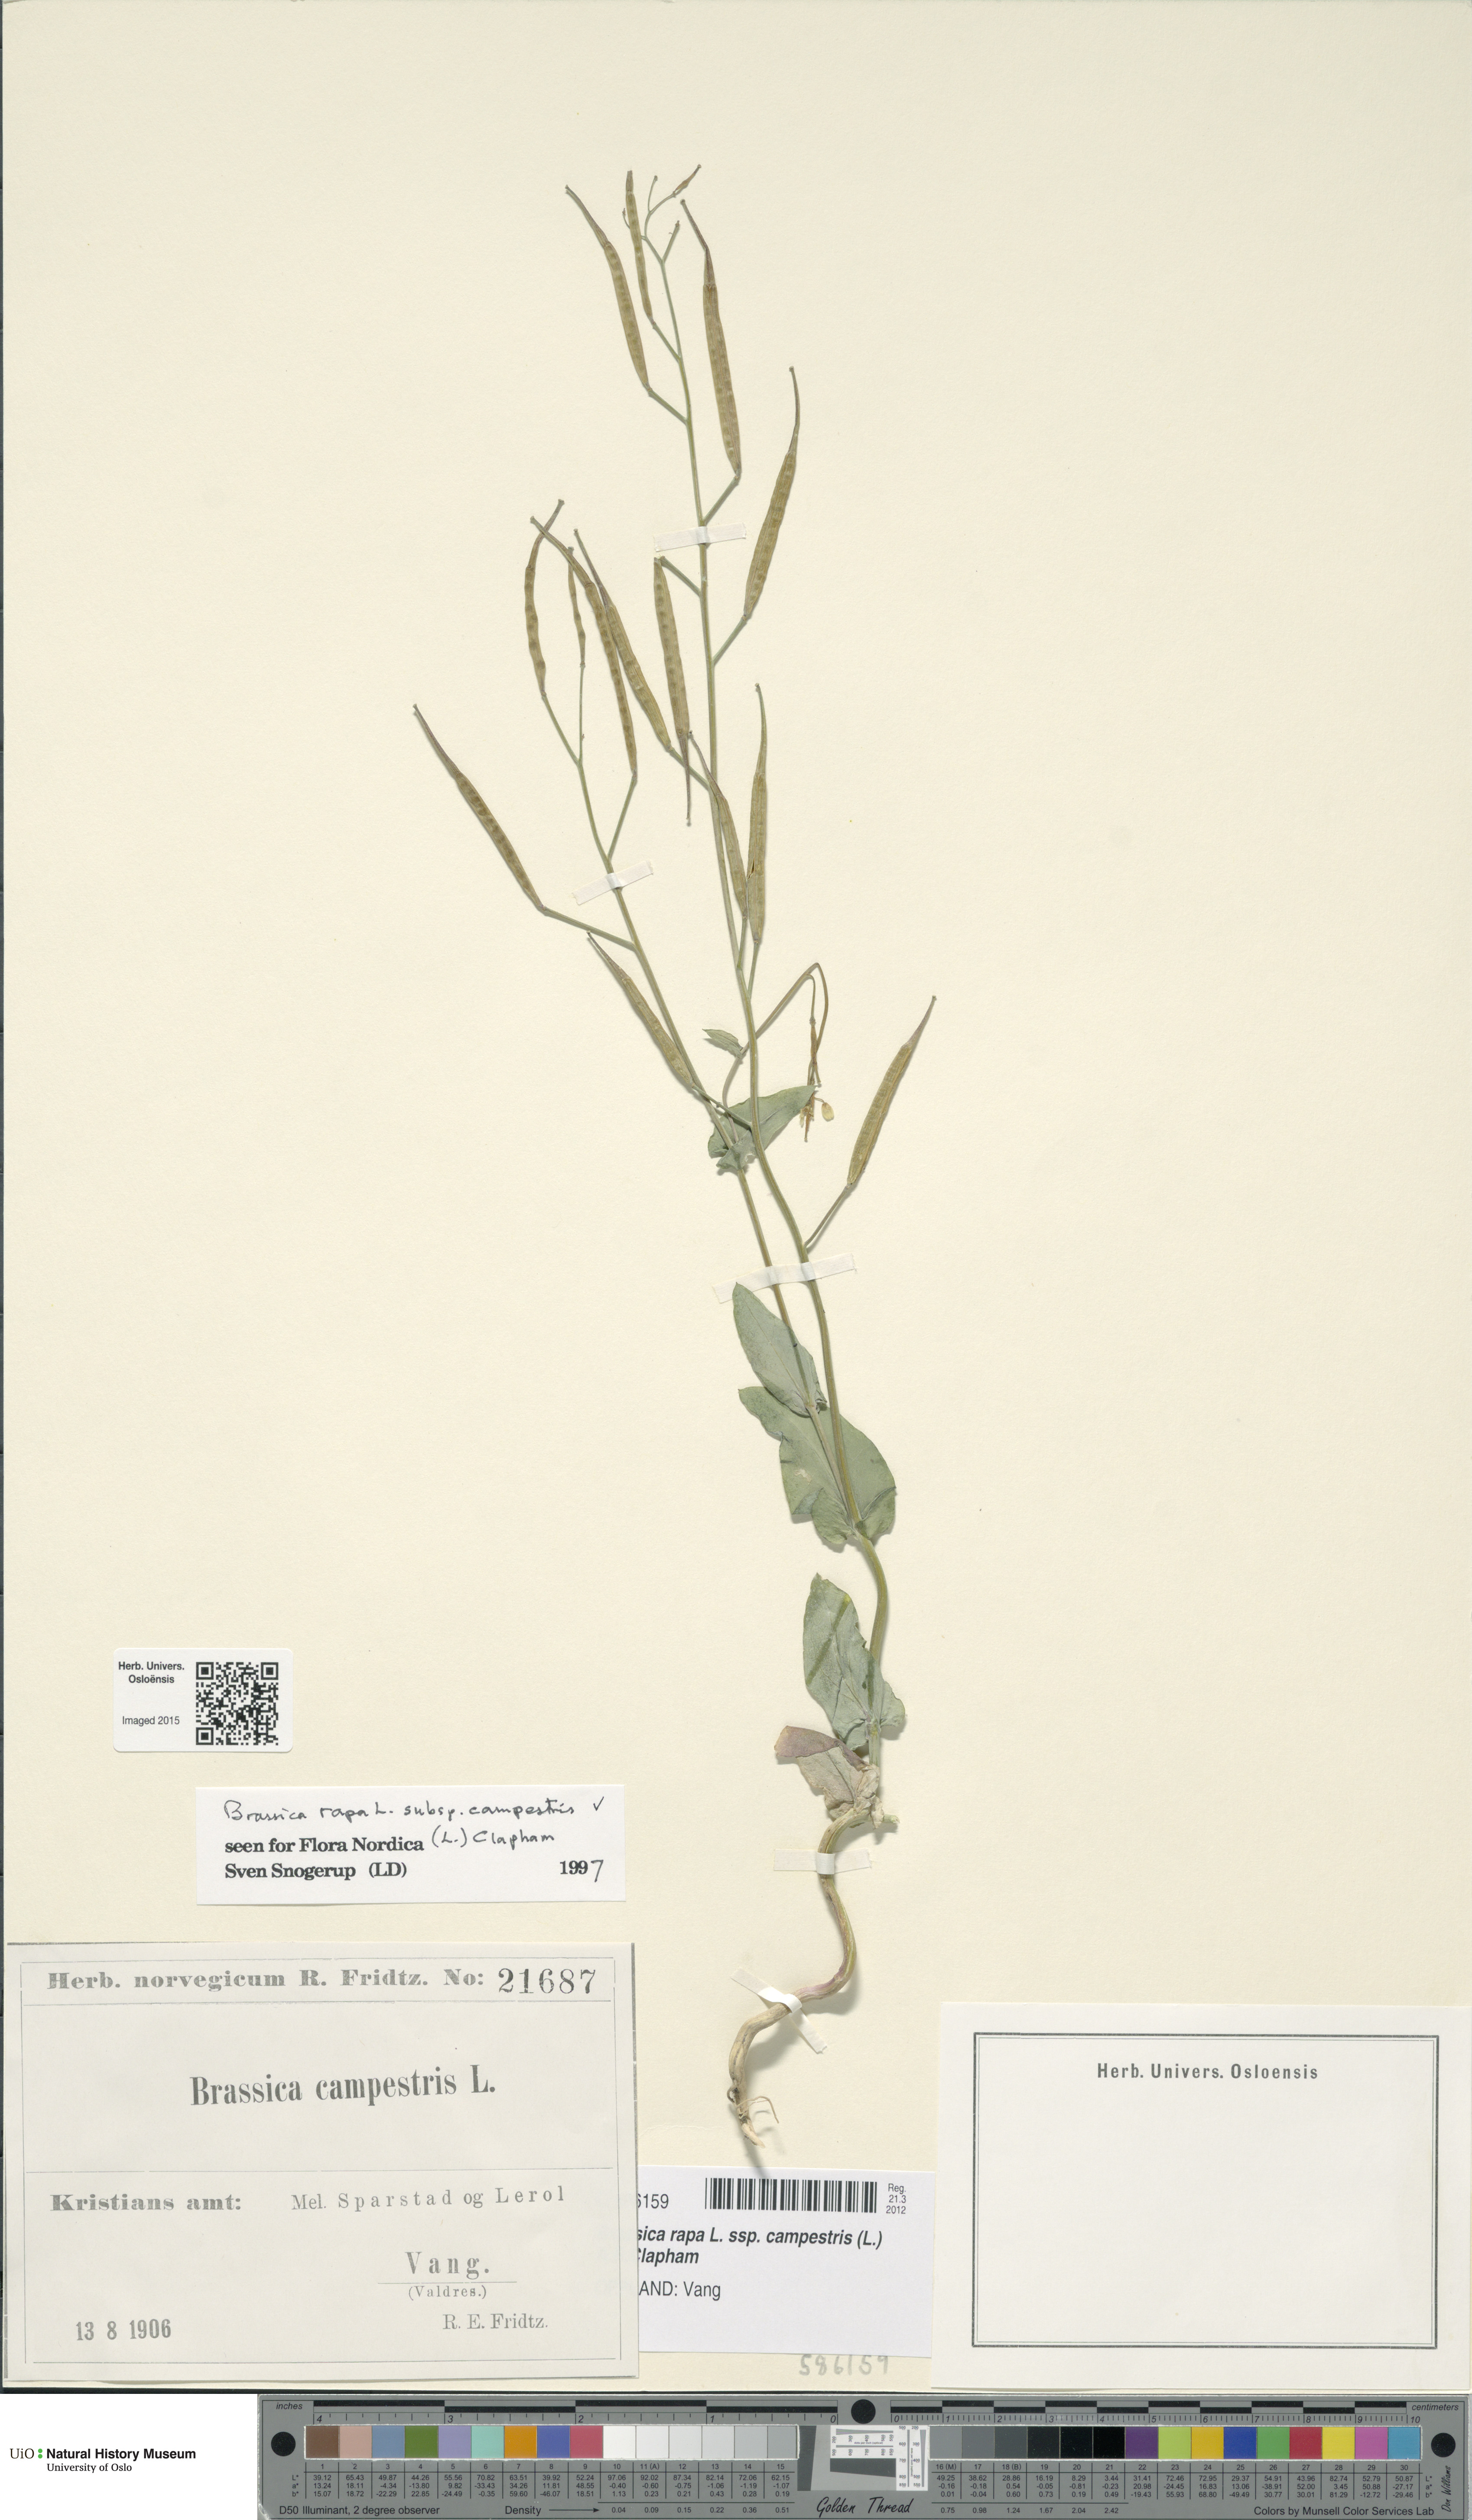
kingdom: Plantae
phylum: Tracheophyta
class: Magnoliopsida
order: Brassicales
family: Brassicaceae
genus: Brassica
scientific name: Brassica rapa
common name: Field mustard
